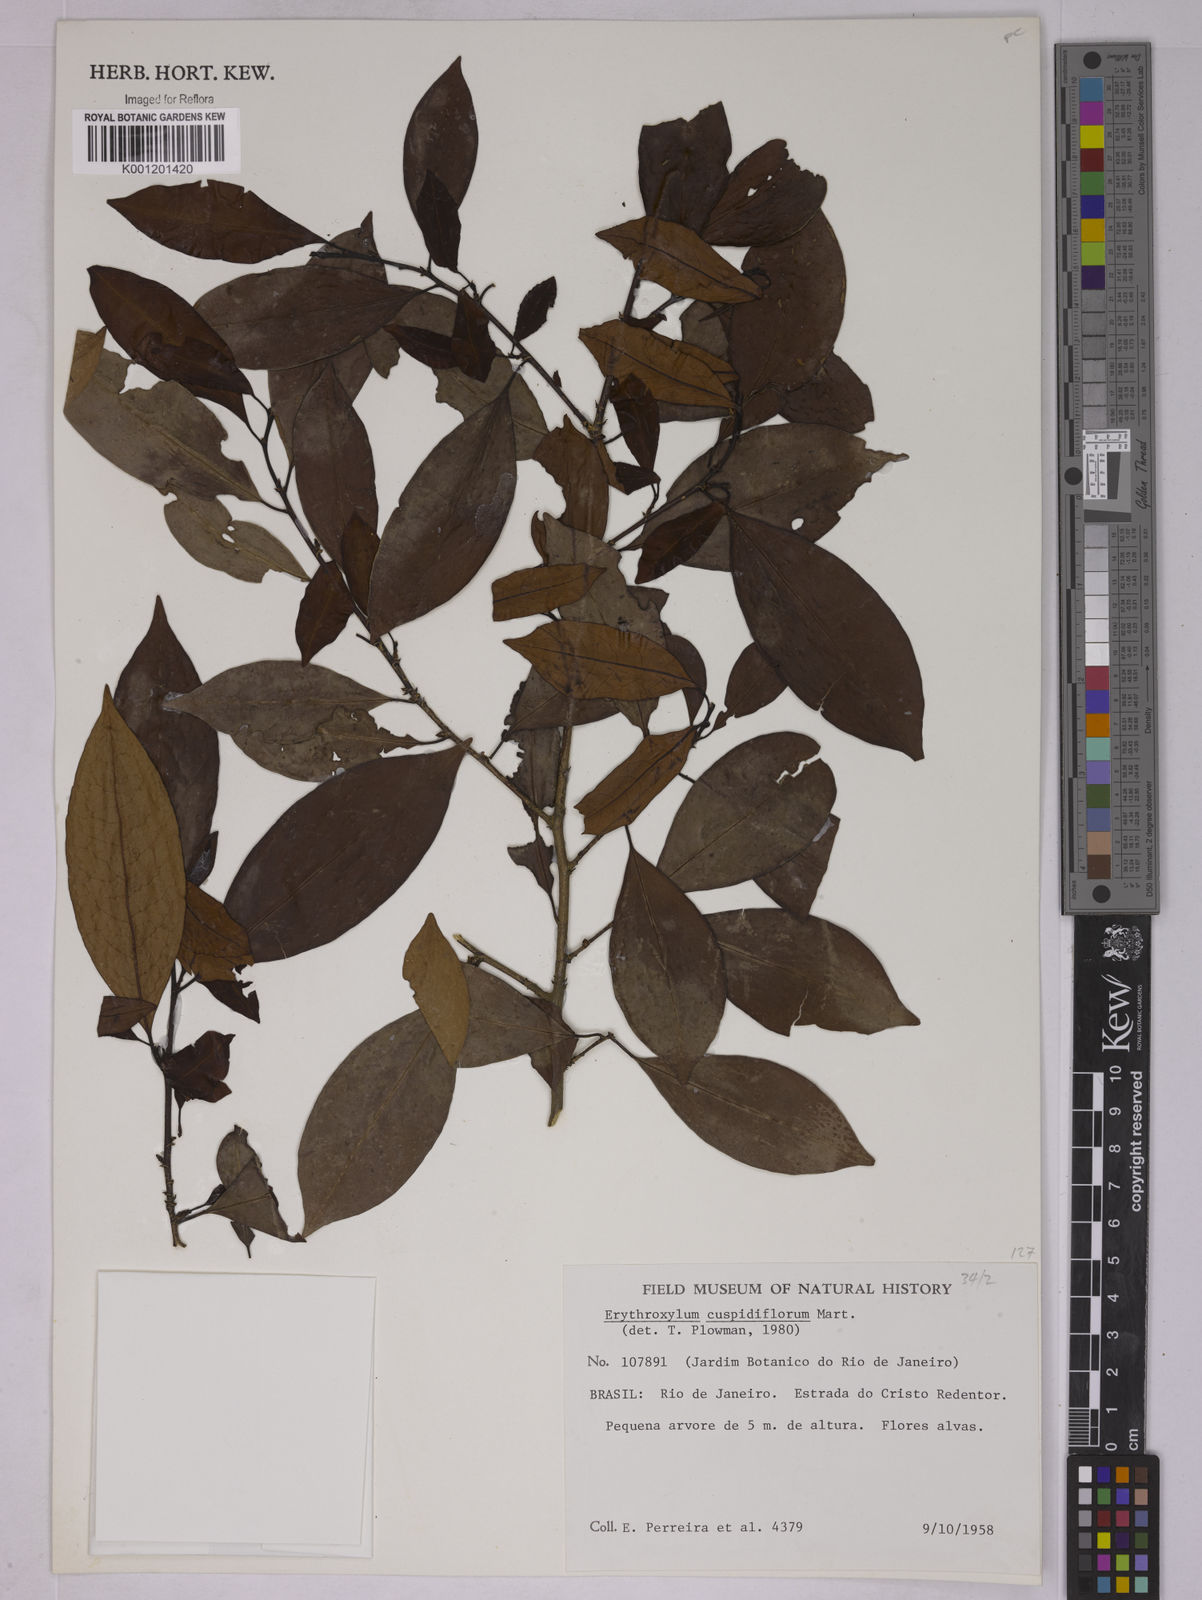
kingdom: Plantae
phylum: Tracheophyta
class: Magnoliopsida
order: Malpighiales
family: Erythroxylaceae
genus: Erythroxylum
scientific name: Erythroxylum cuspidifolium
